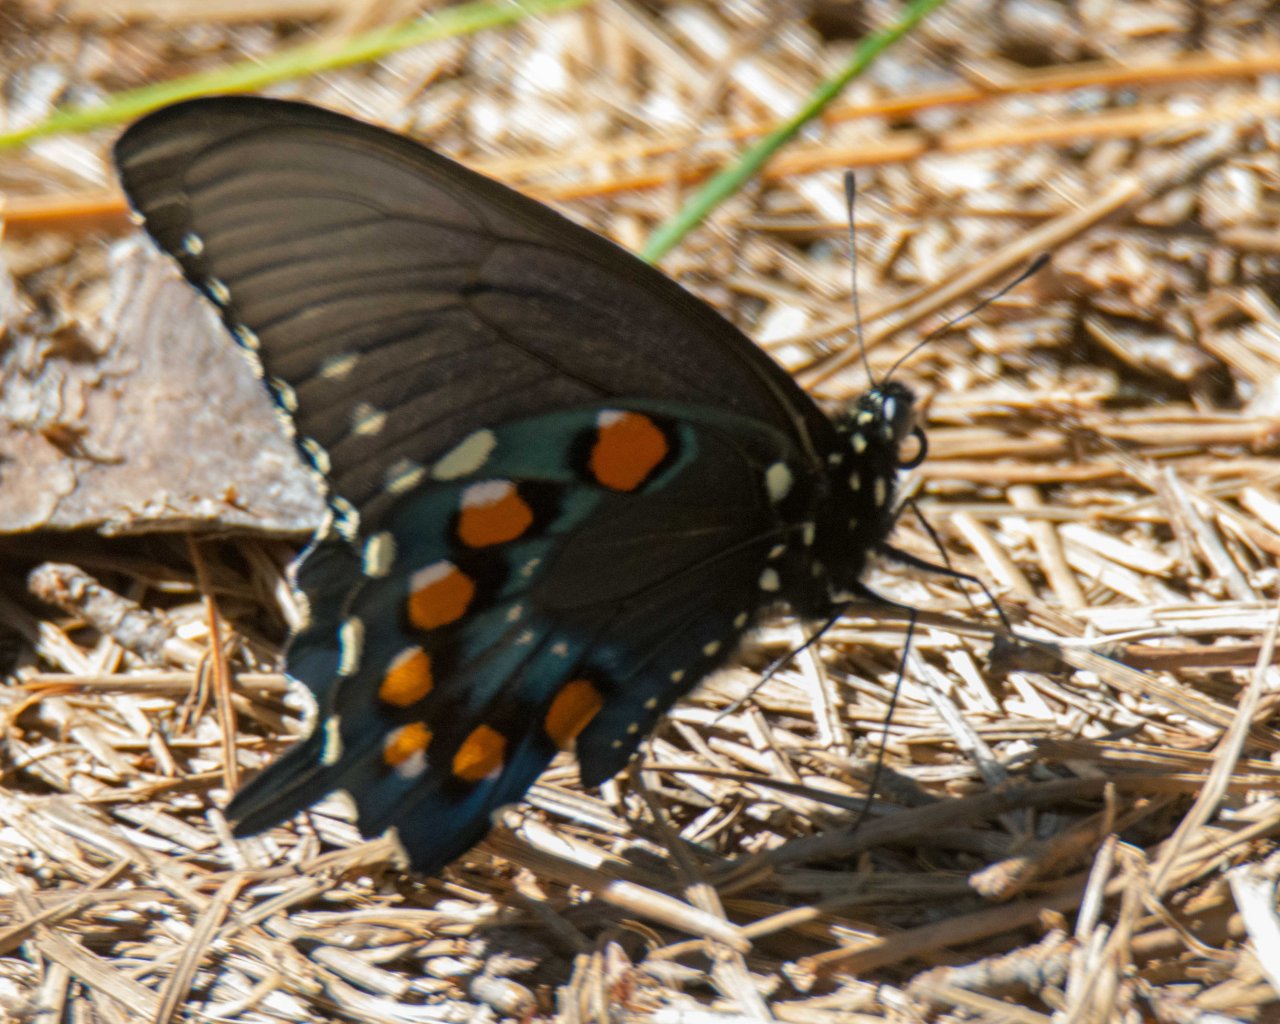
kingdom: Animalia
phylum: Arthropoda
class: Insecta
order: Lepidoptera
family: Papilionidae
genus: Battus
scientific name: Battus philenor
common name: Pipevine Swallowtail
